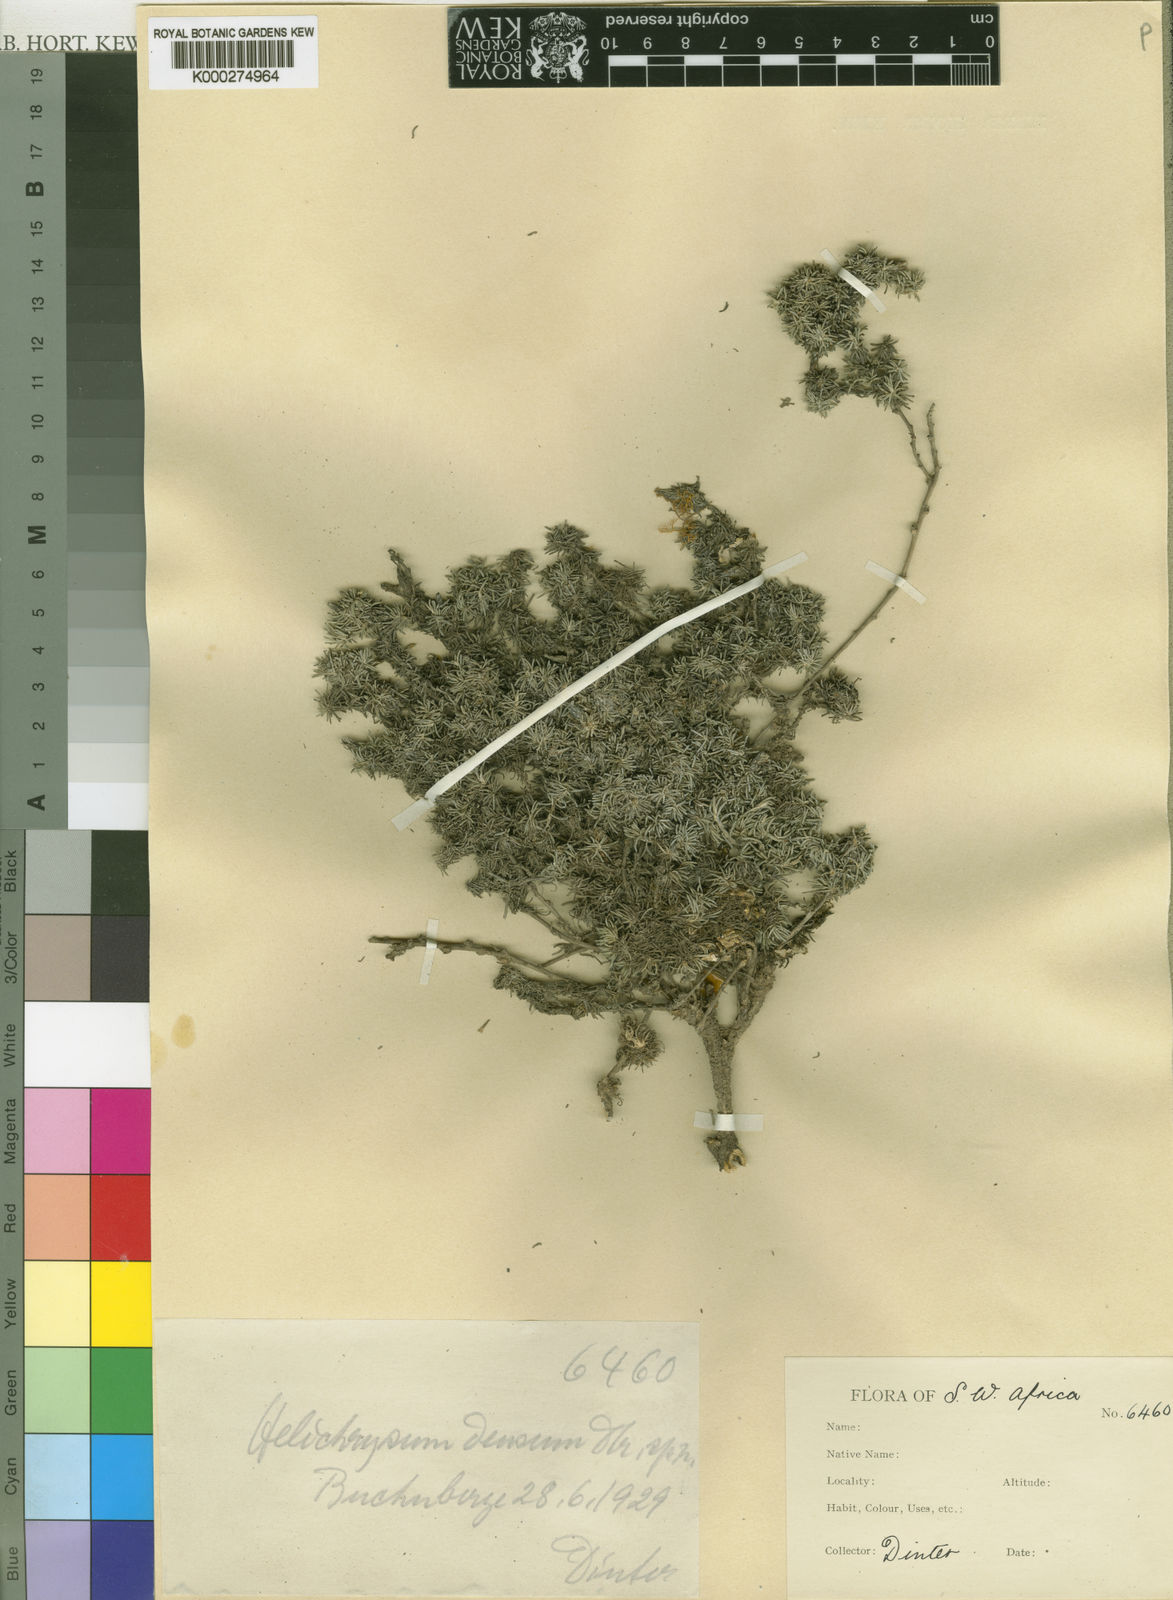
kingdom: Plantae
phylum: Tracheophyta
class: Magnoliopsida
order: Asterales
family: Asteraceae
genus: Helichrysum
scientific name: Helichrysum
